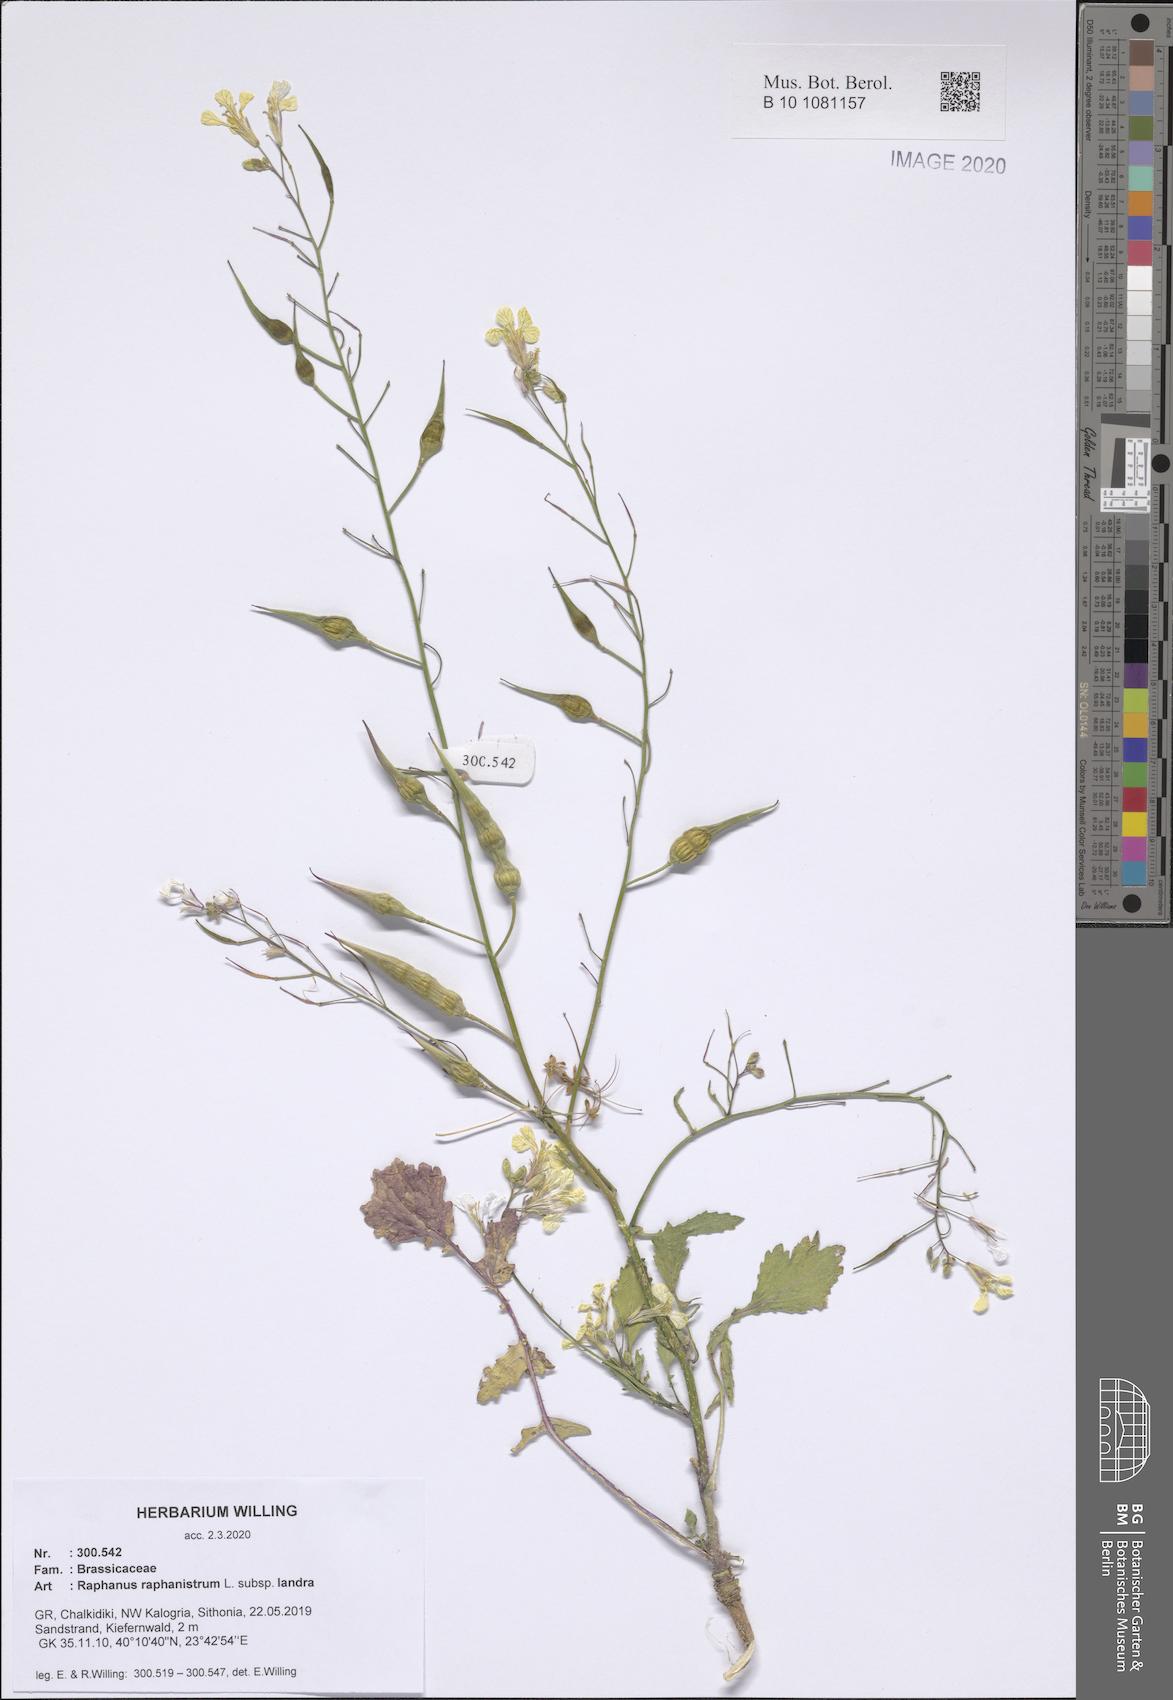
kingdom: Plantae
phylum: Tracheophyta
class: Magnoliopsida
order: Brassicales
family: Brassicaceae
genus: Raphanus
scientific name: Raphanus raphanistrum
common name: Wild radish
